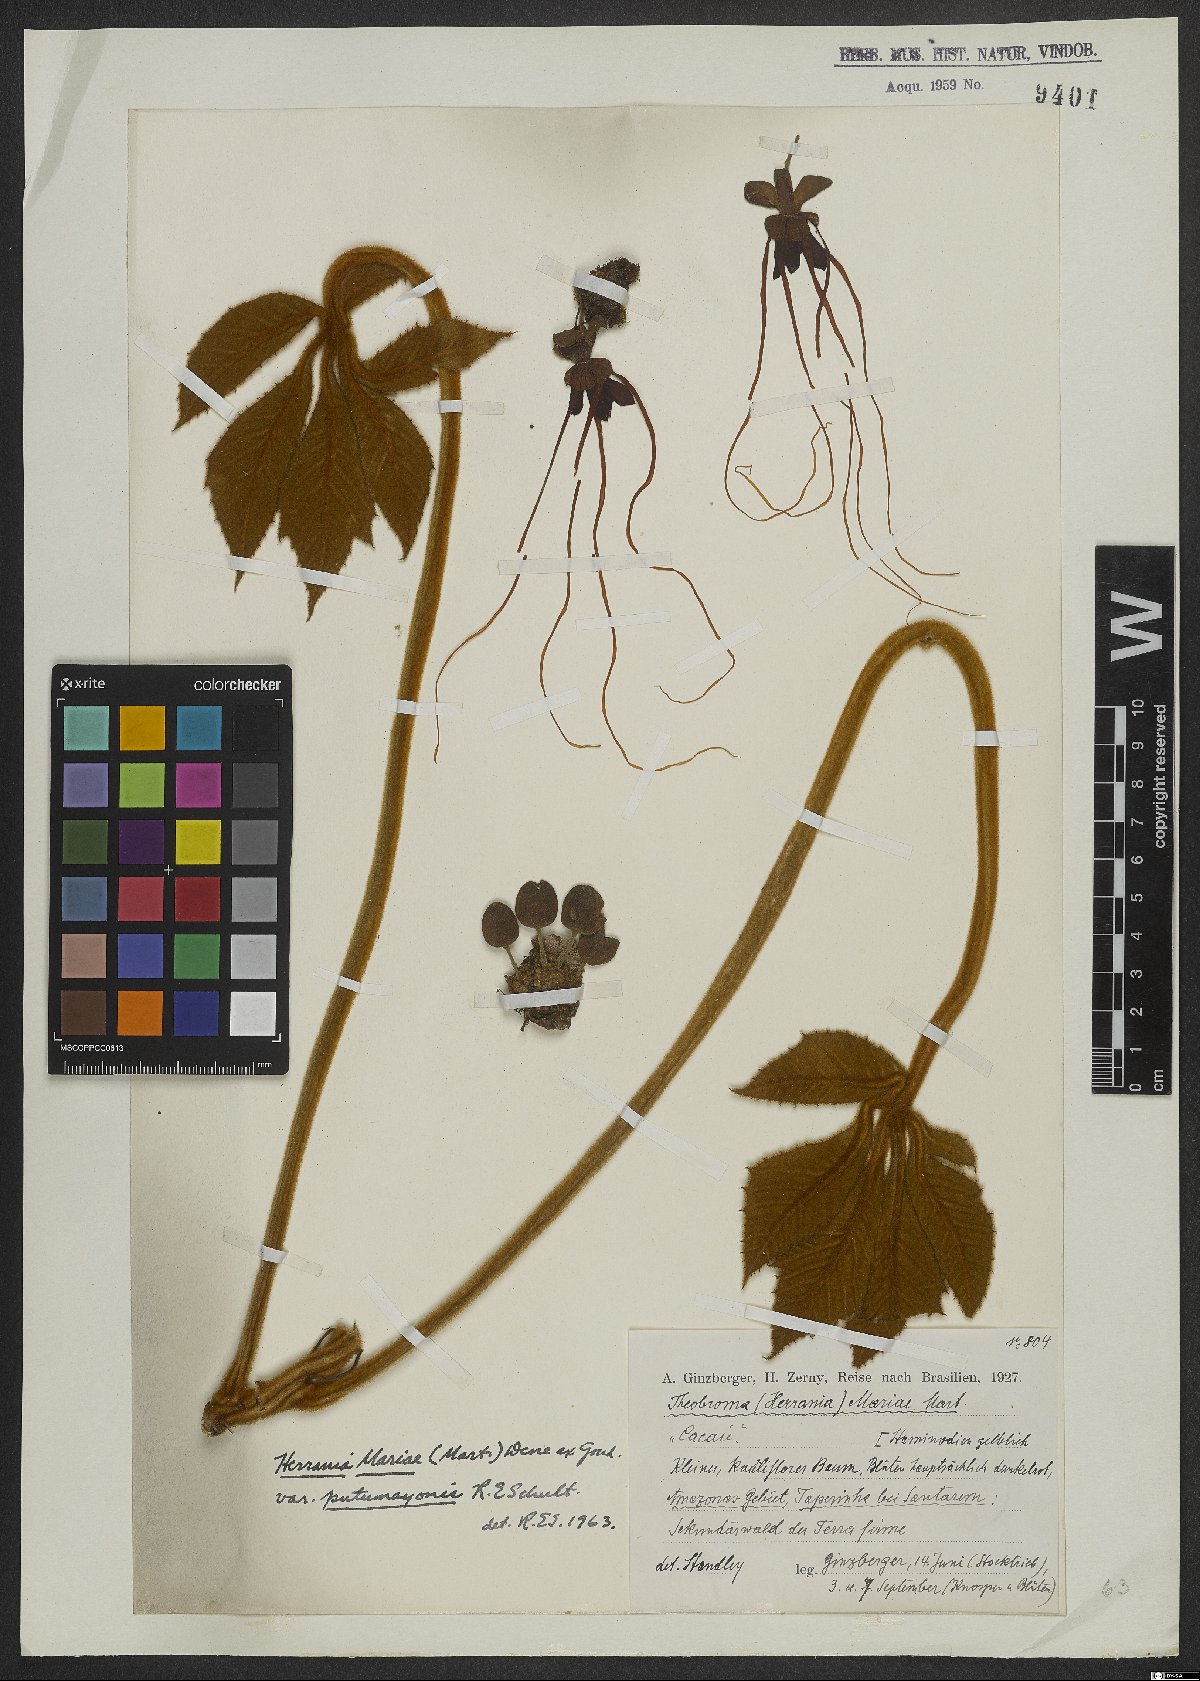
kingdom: Plantae
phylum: Tracheophyta
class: Magnoliopsida
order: Malvales
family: Malvaceae
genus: Herrania
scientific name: Herrania mariae
